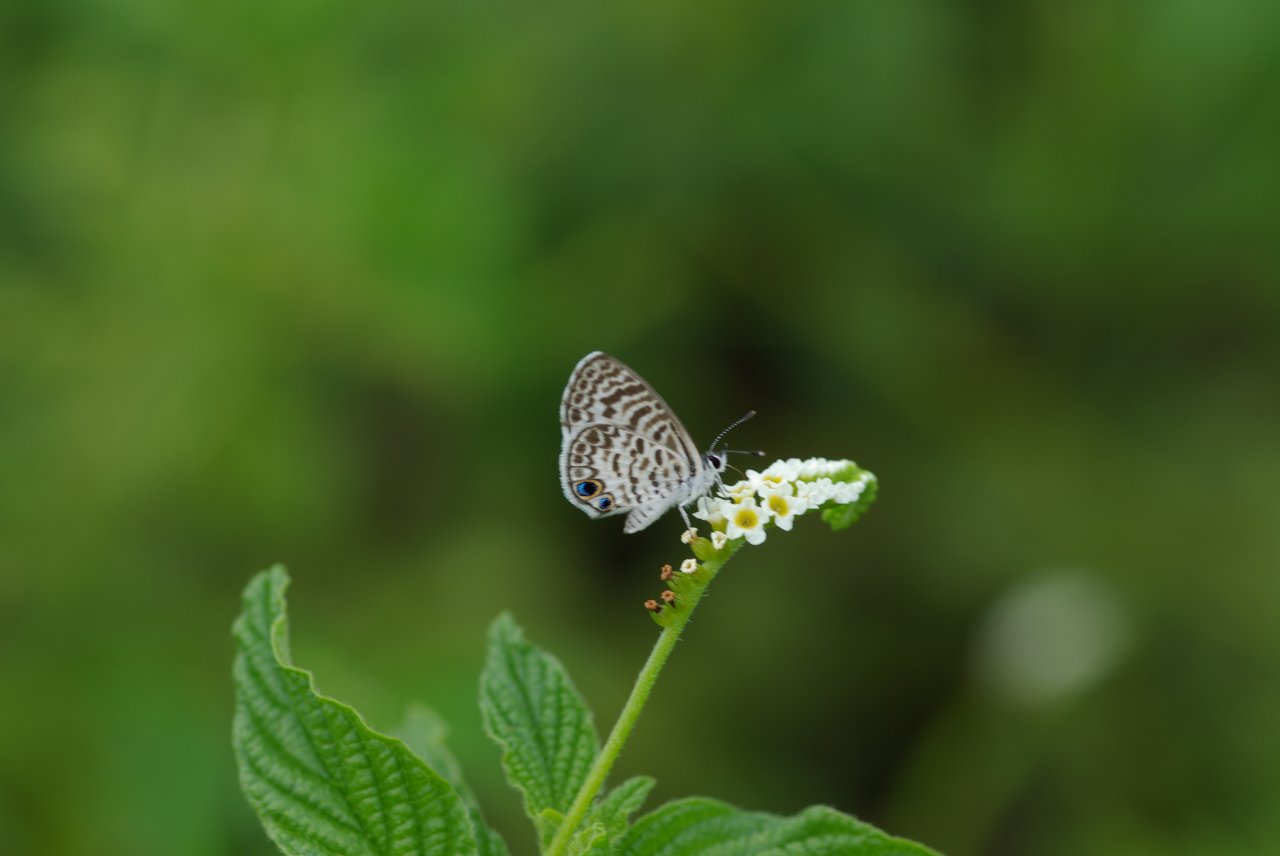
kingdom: Animalia
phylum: Arthropoda
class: Insecta
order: Lepidoptera
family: Lycaenidae
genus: Leptotes
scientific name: Leptotes cassius
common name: Cassius Blue
